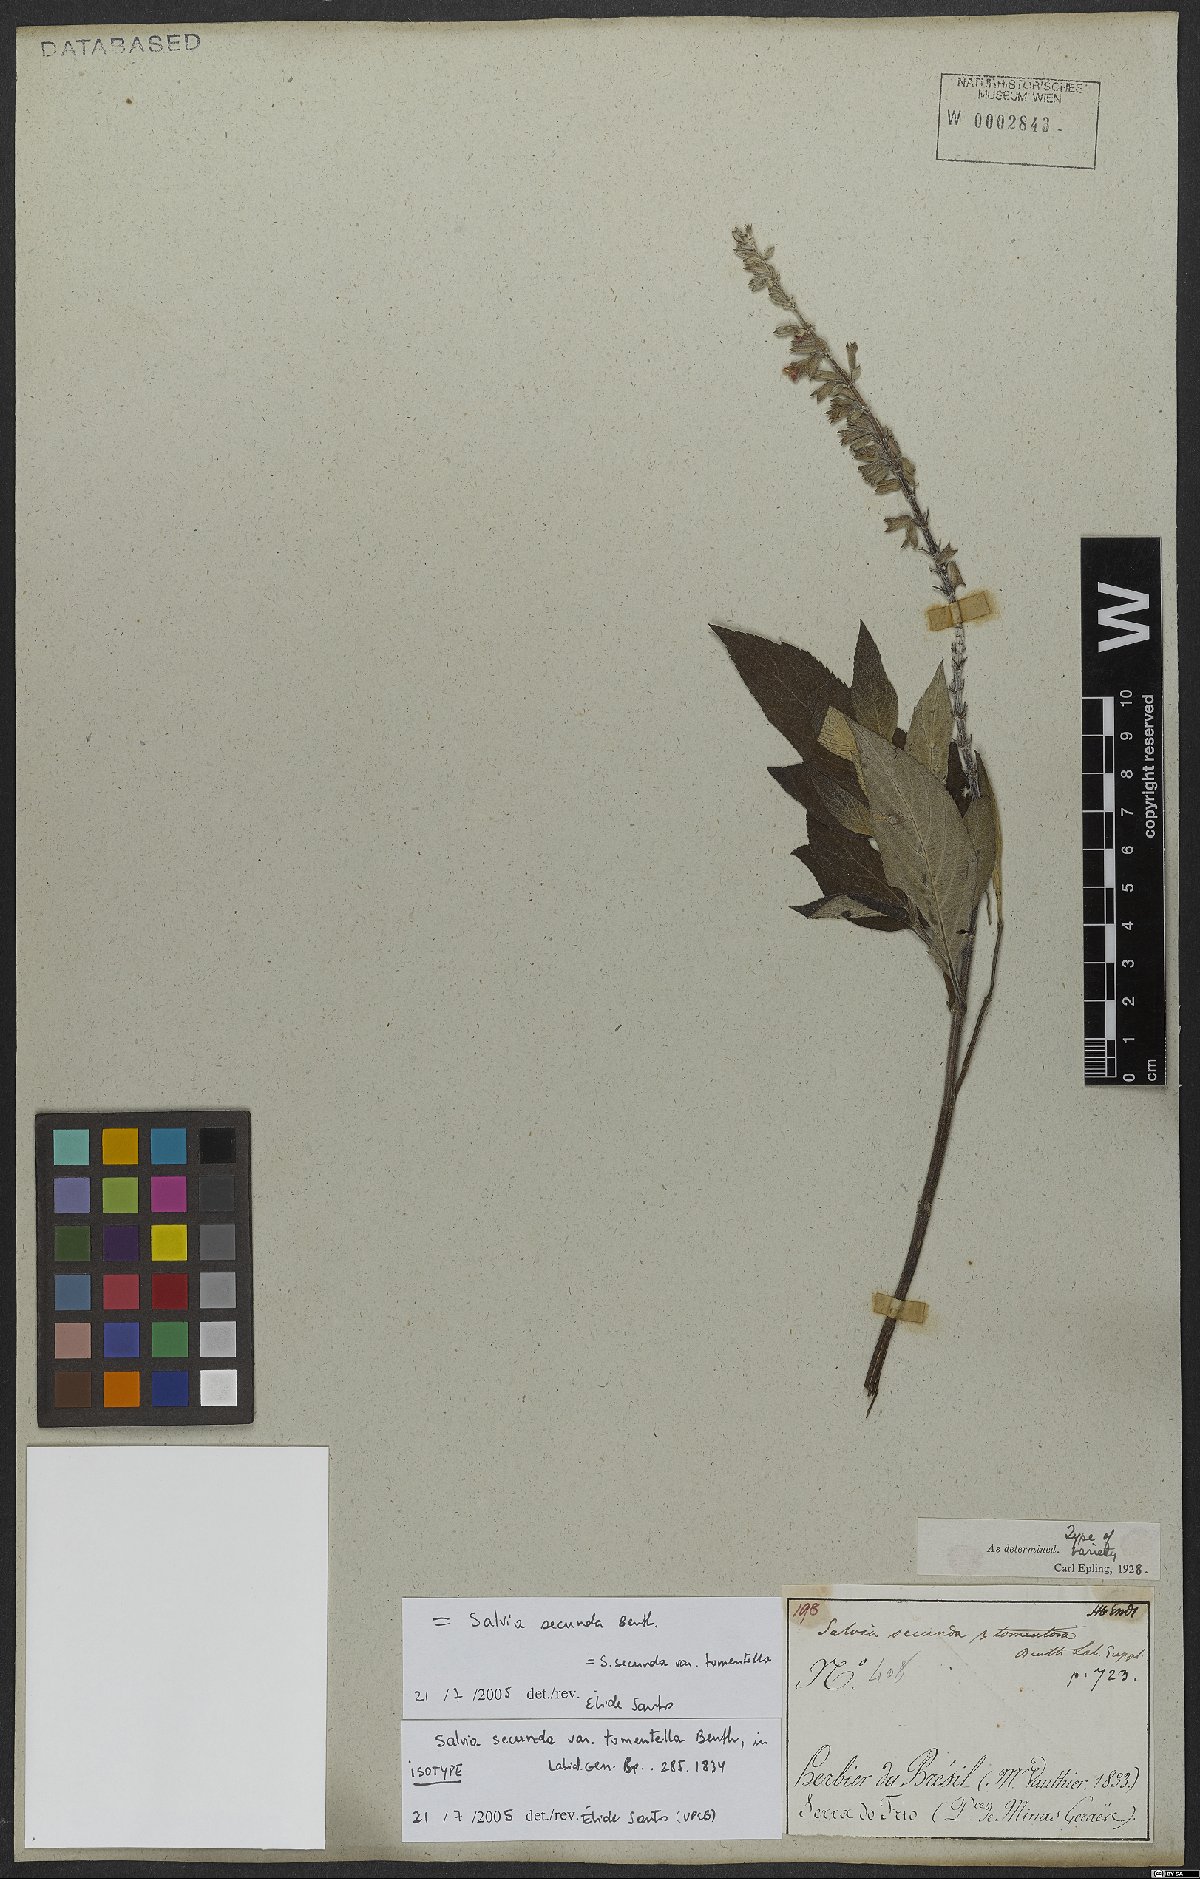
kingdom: Plantae
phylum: Tracheophyta
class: Magnoliopsida
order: Lamiales
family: Lamiaceae
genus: Salvia
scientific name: Salvia secunda
